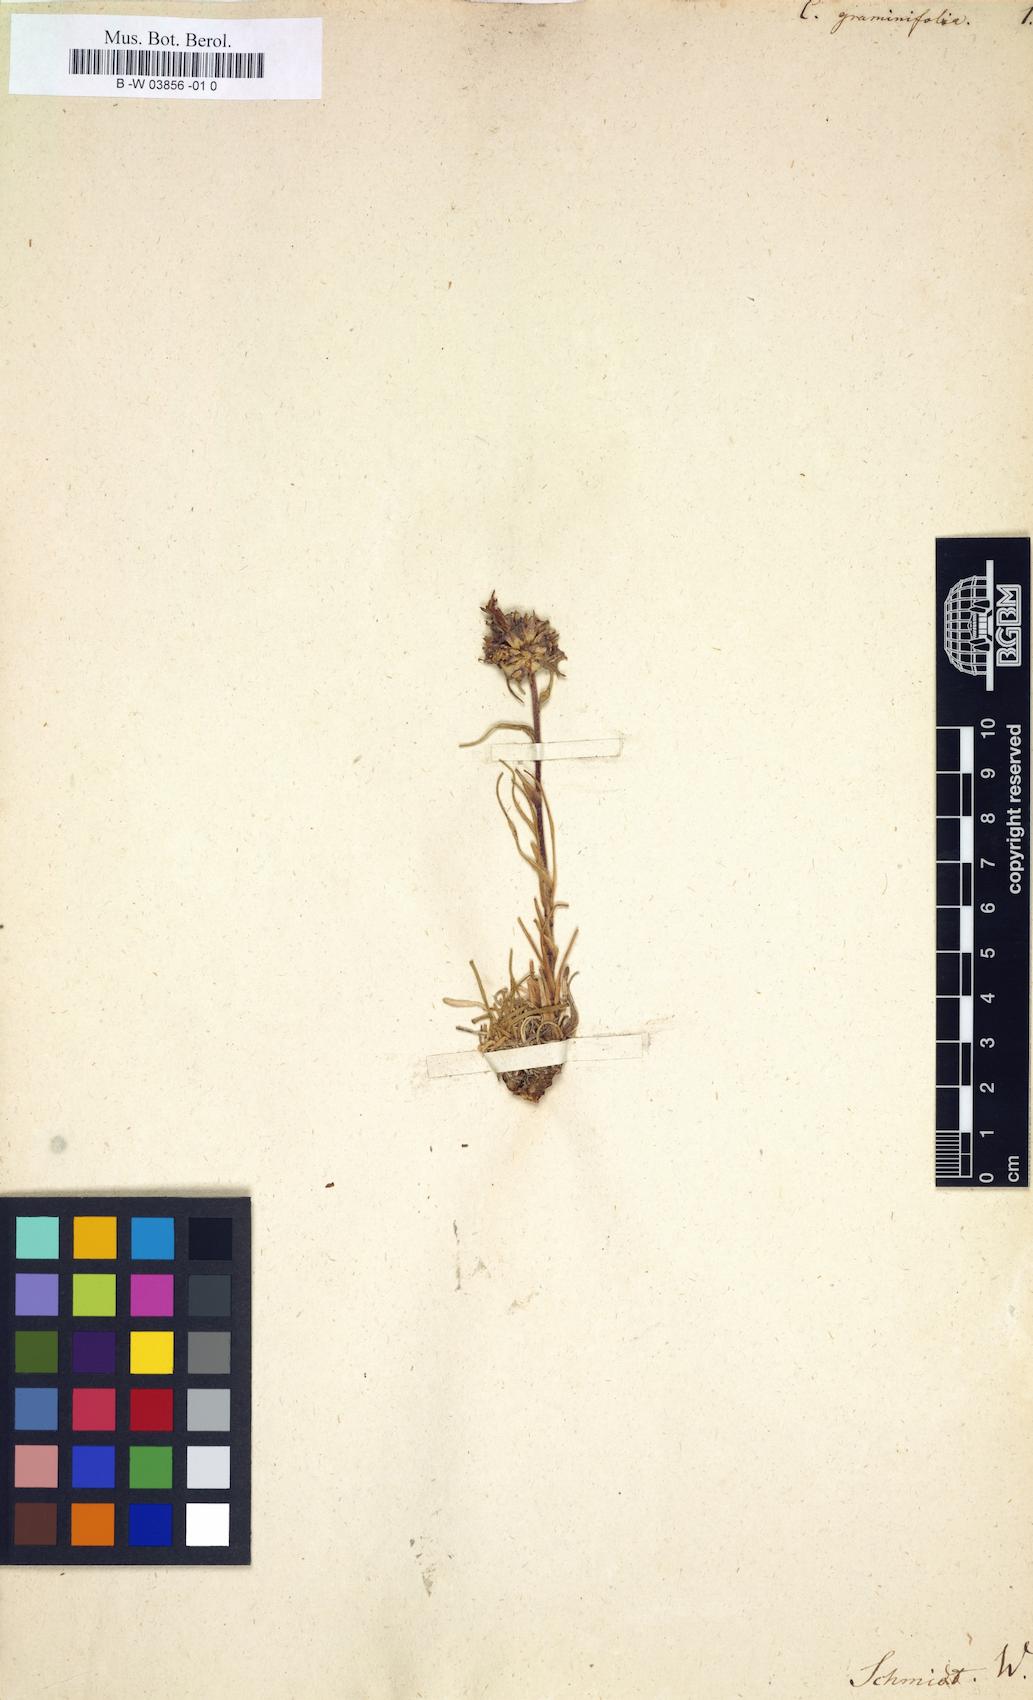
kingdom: Plantae
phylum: Tracheophyta
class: Magnoliopsida
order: Asterales
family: Campanulaceae
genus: Edraianthus
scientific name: Edraianthus graminifolius
